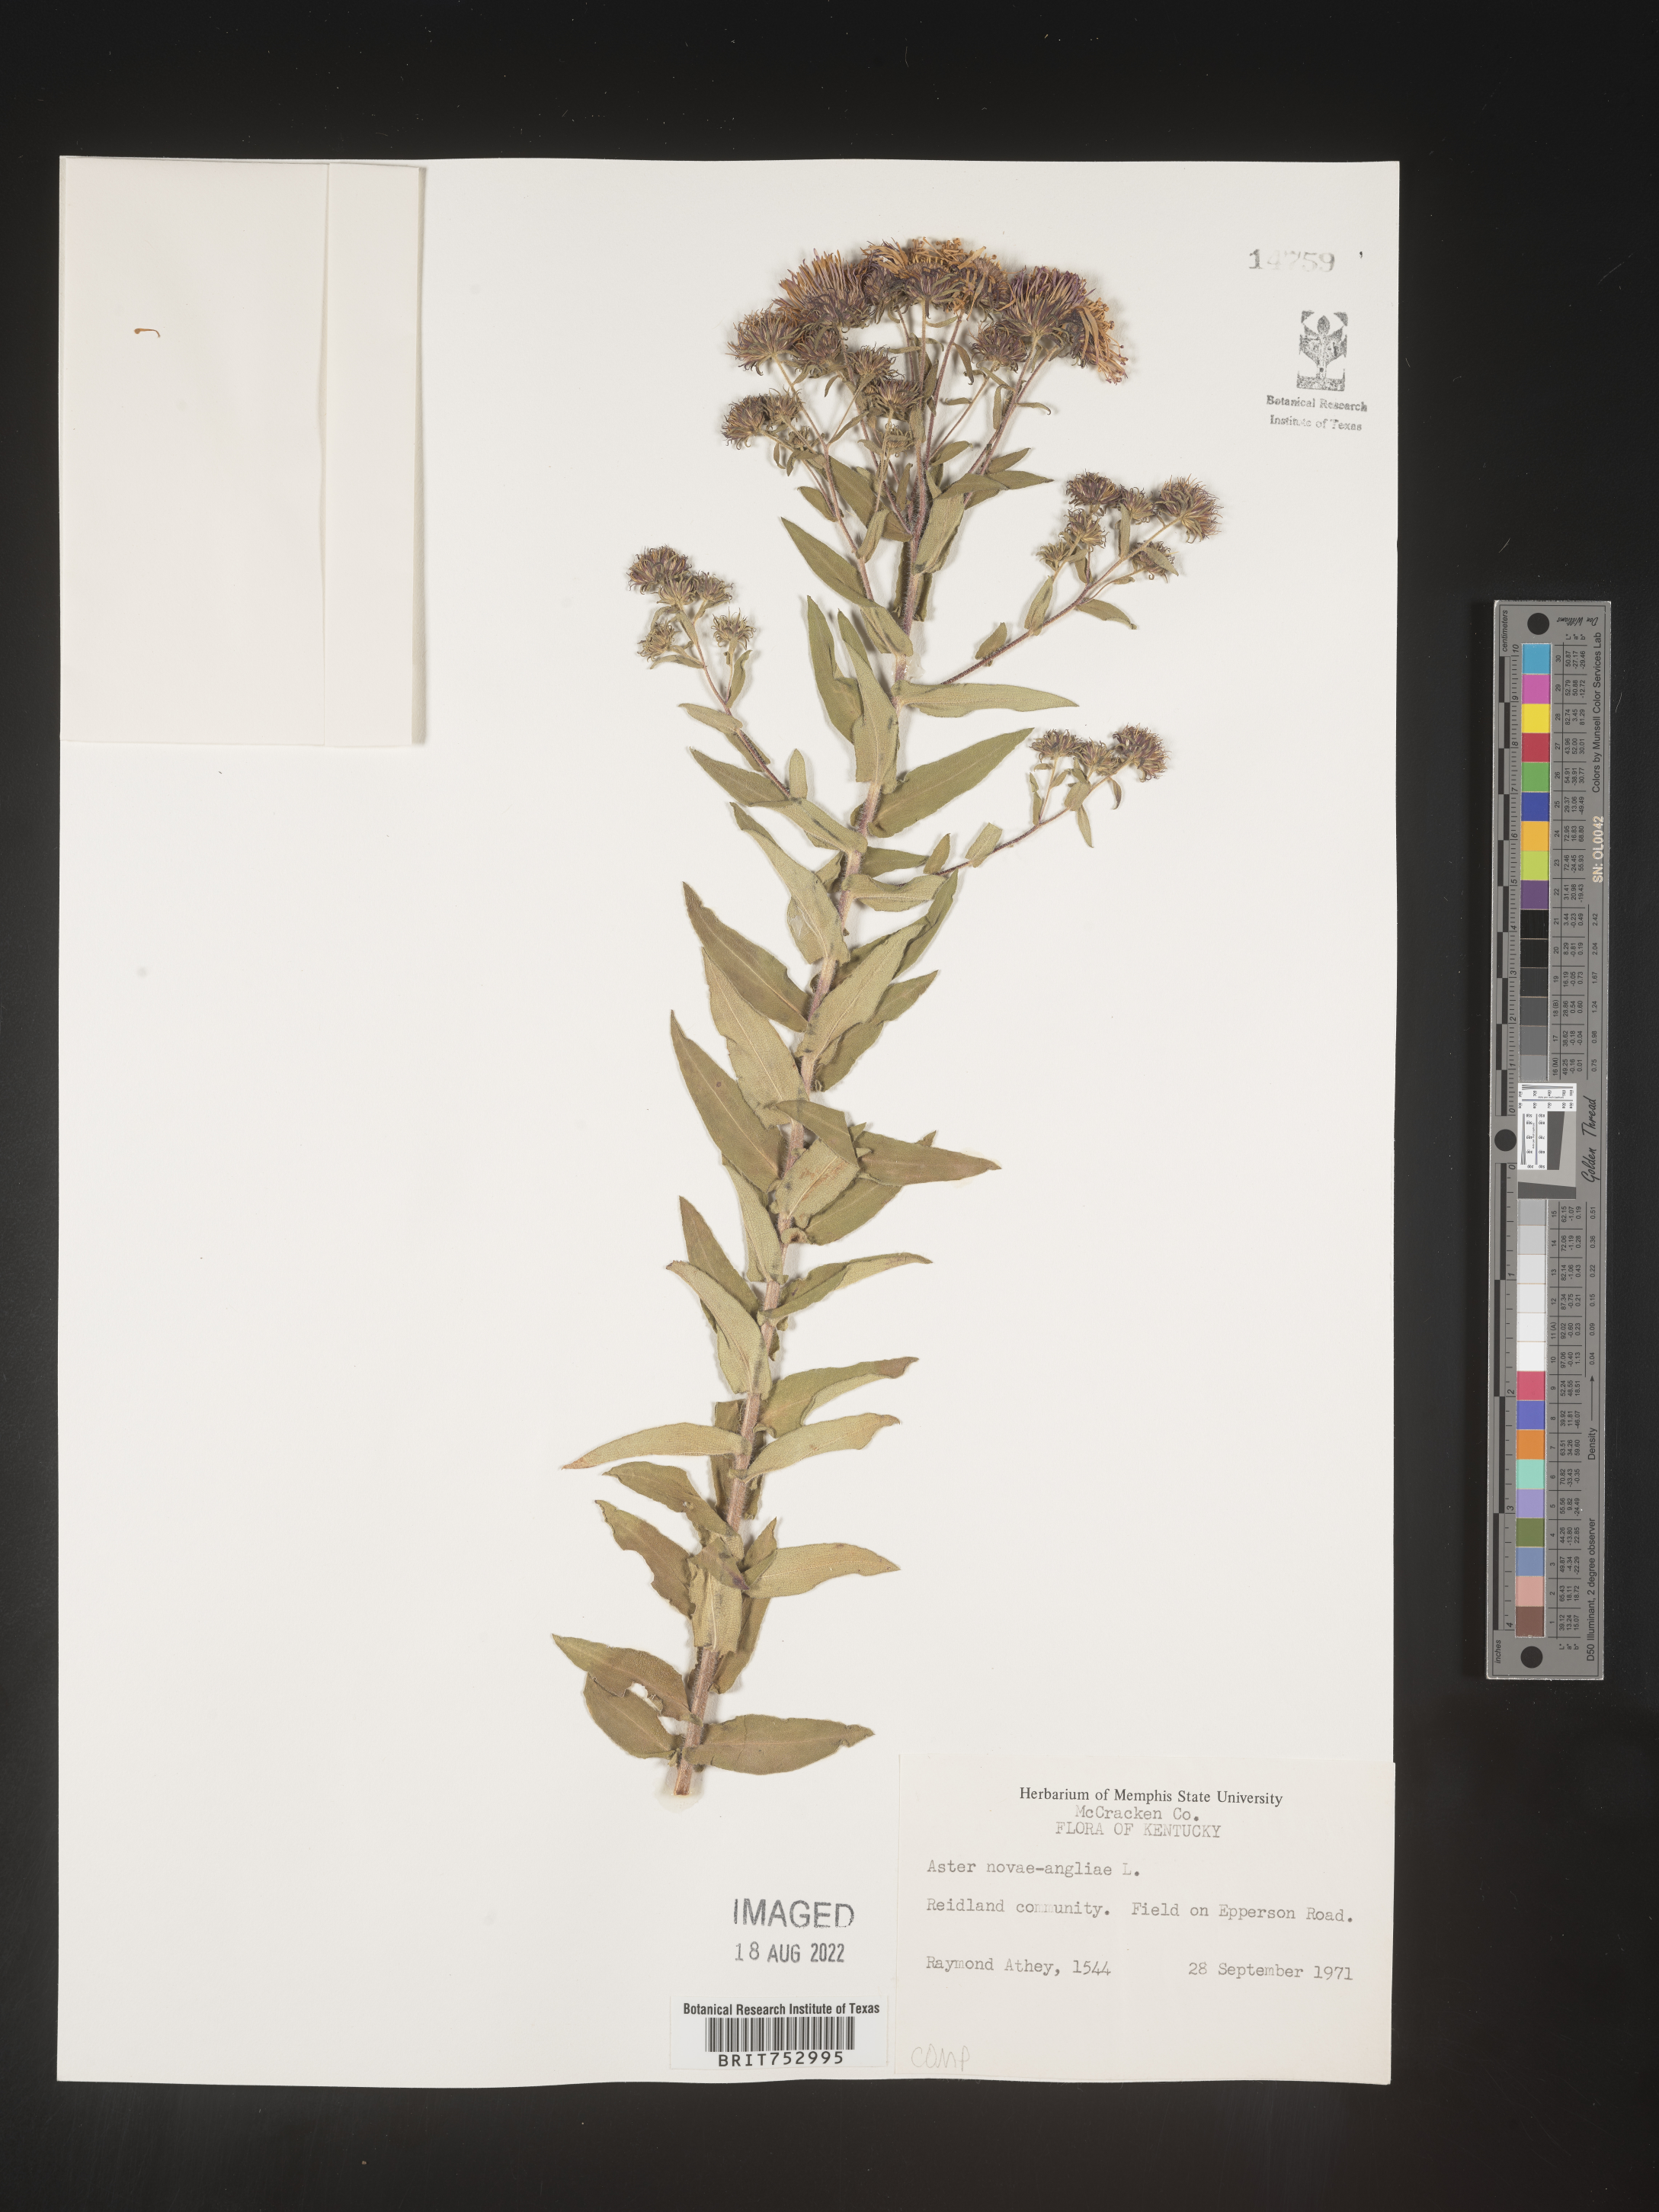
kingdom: Plantae
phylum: Tracheophyta
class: Magnoliopsida
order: Asterales
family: Asteraceae
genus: Symphyotrichum
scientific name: Symphyotrichum novae-angliae
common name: Michaelmas daisy
